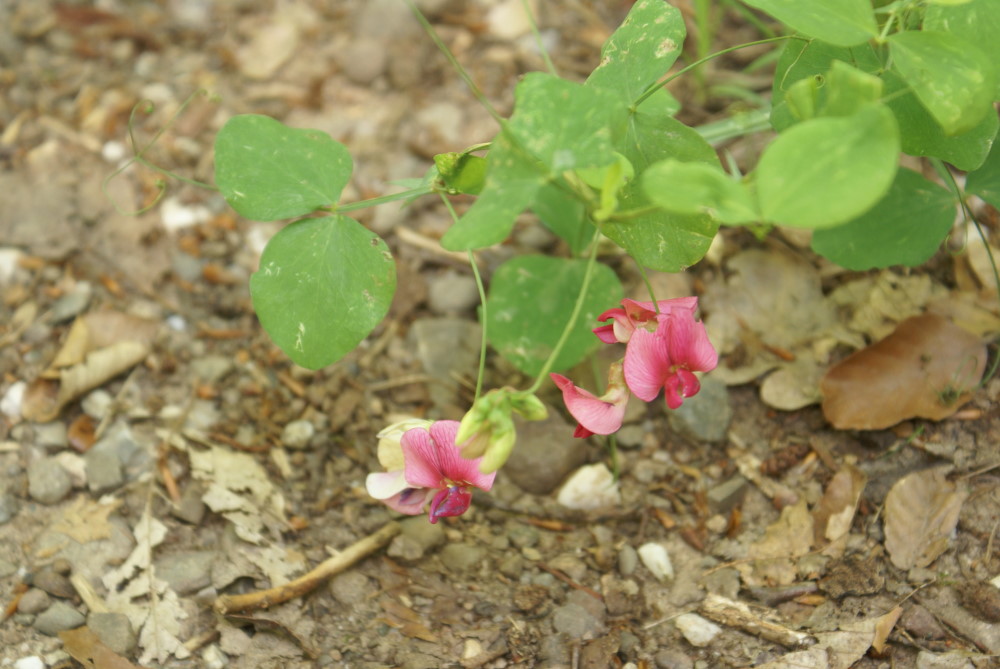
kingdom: Plantae
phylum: Tracheophyta
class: Magnoliopsida
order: Fabales
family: Fabaceae
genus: Lathyrus
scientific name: Lathyrus rotundifolius
